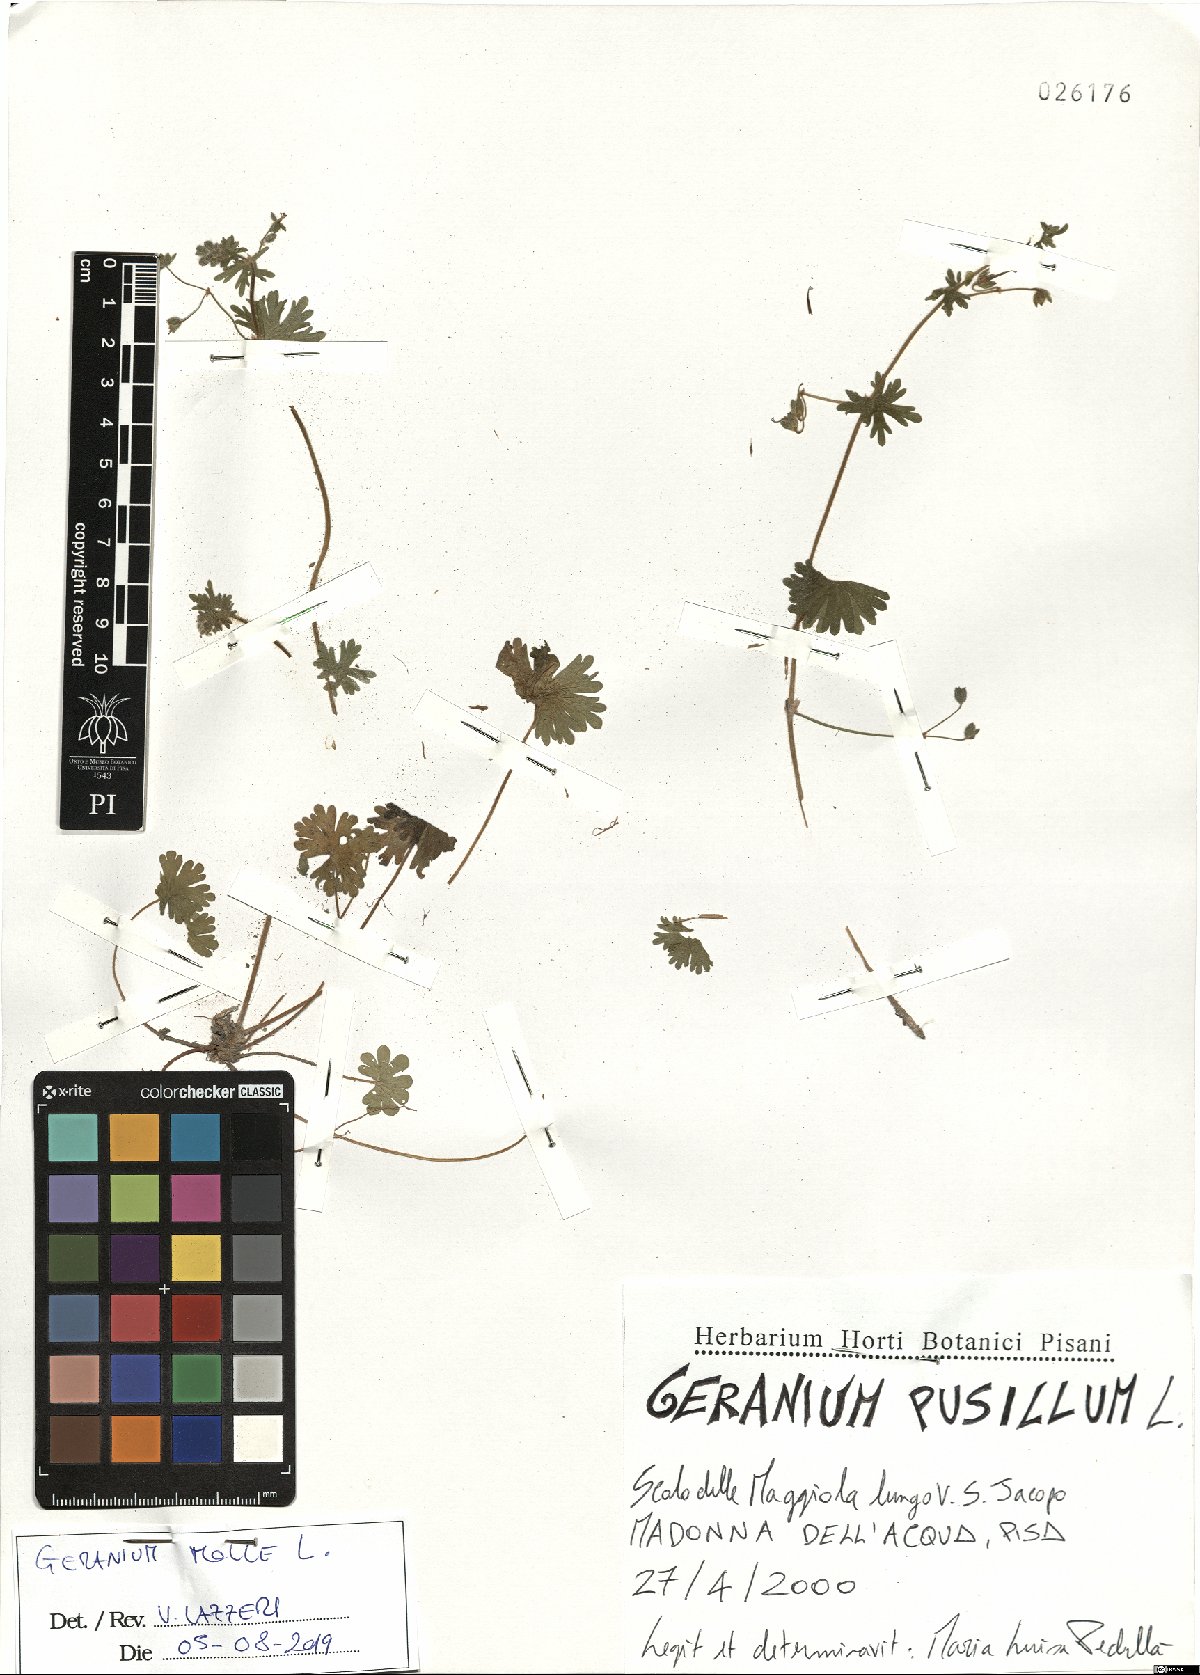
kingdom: Plantae
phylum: Tracheophyta
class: Magnoliopsida
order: Geraniales
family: Geraniaceae
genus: Geranium
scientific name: Geranium molle
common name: Dove's-foot crane's-bill
